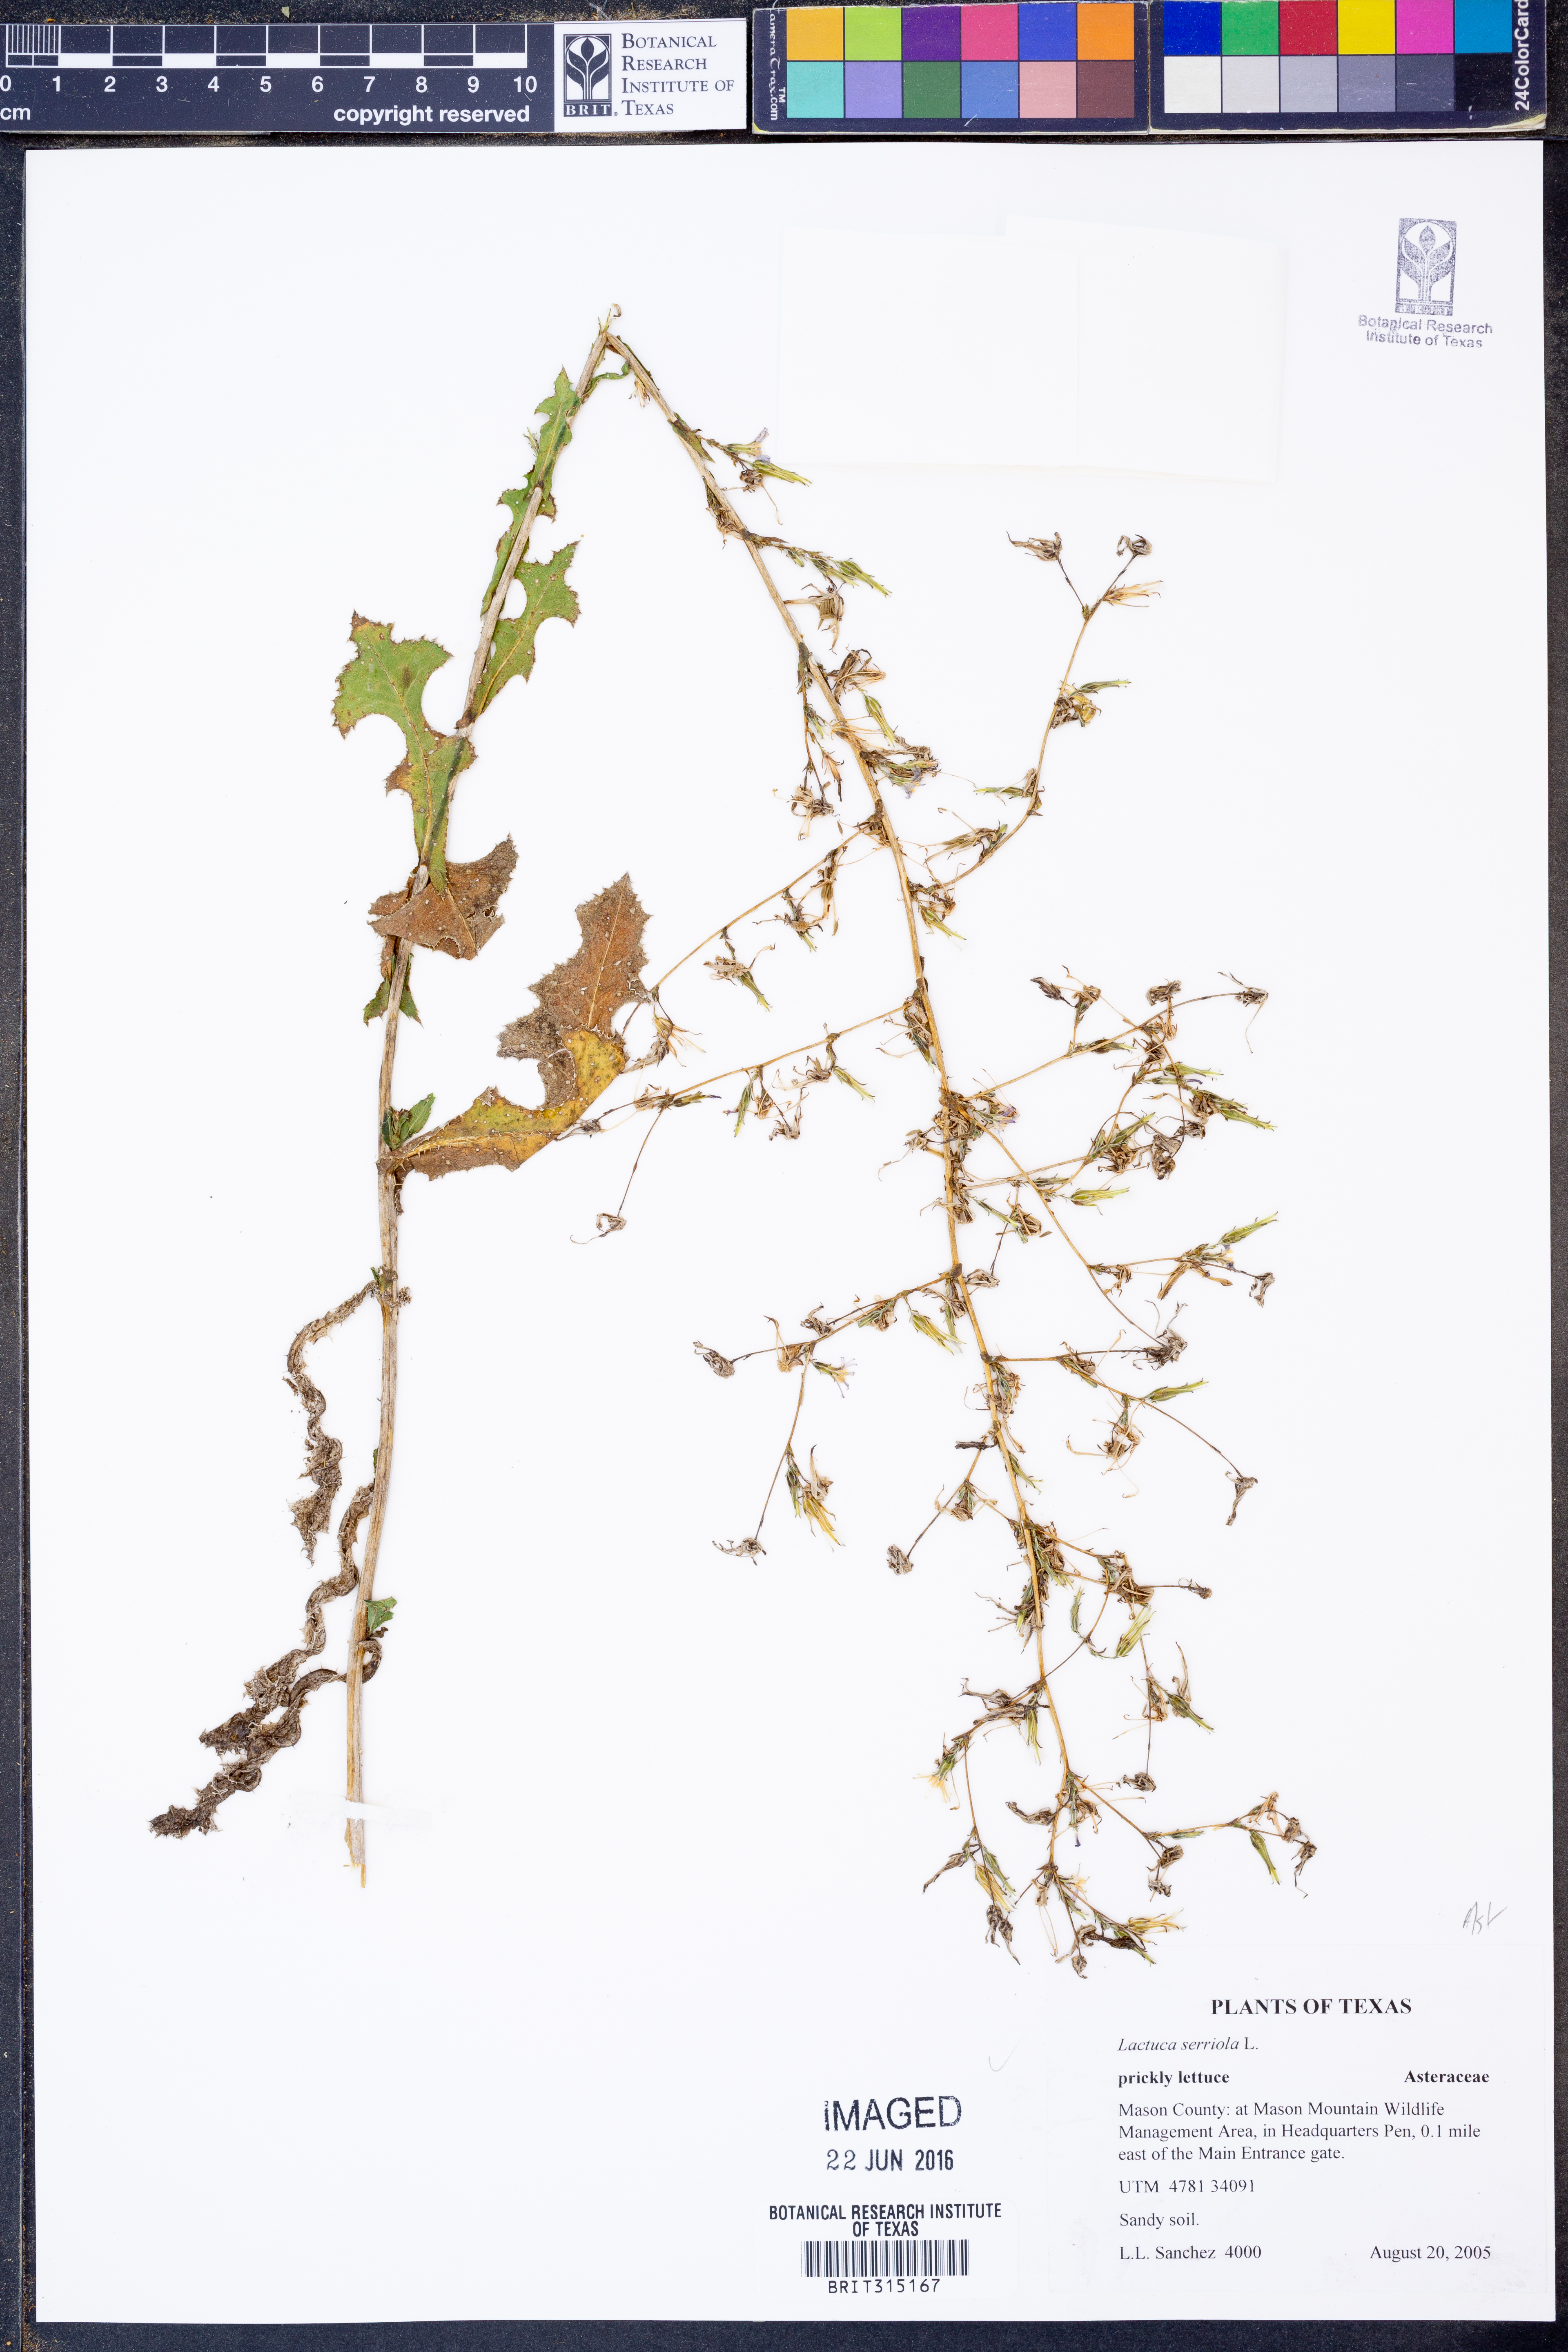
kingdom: Plantae
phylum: Tracheophyta
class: Magnoliopsida
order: Asterales
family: Asteraceae
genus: Lactuca
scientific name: Lactuca serriola
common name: Prickly lettuce
